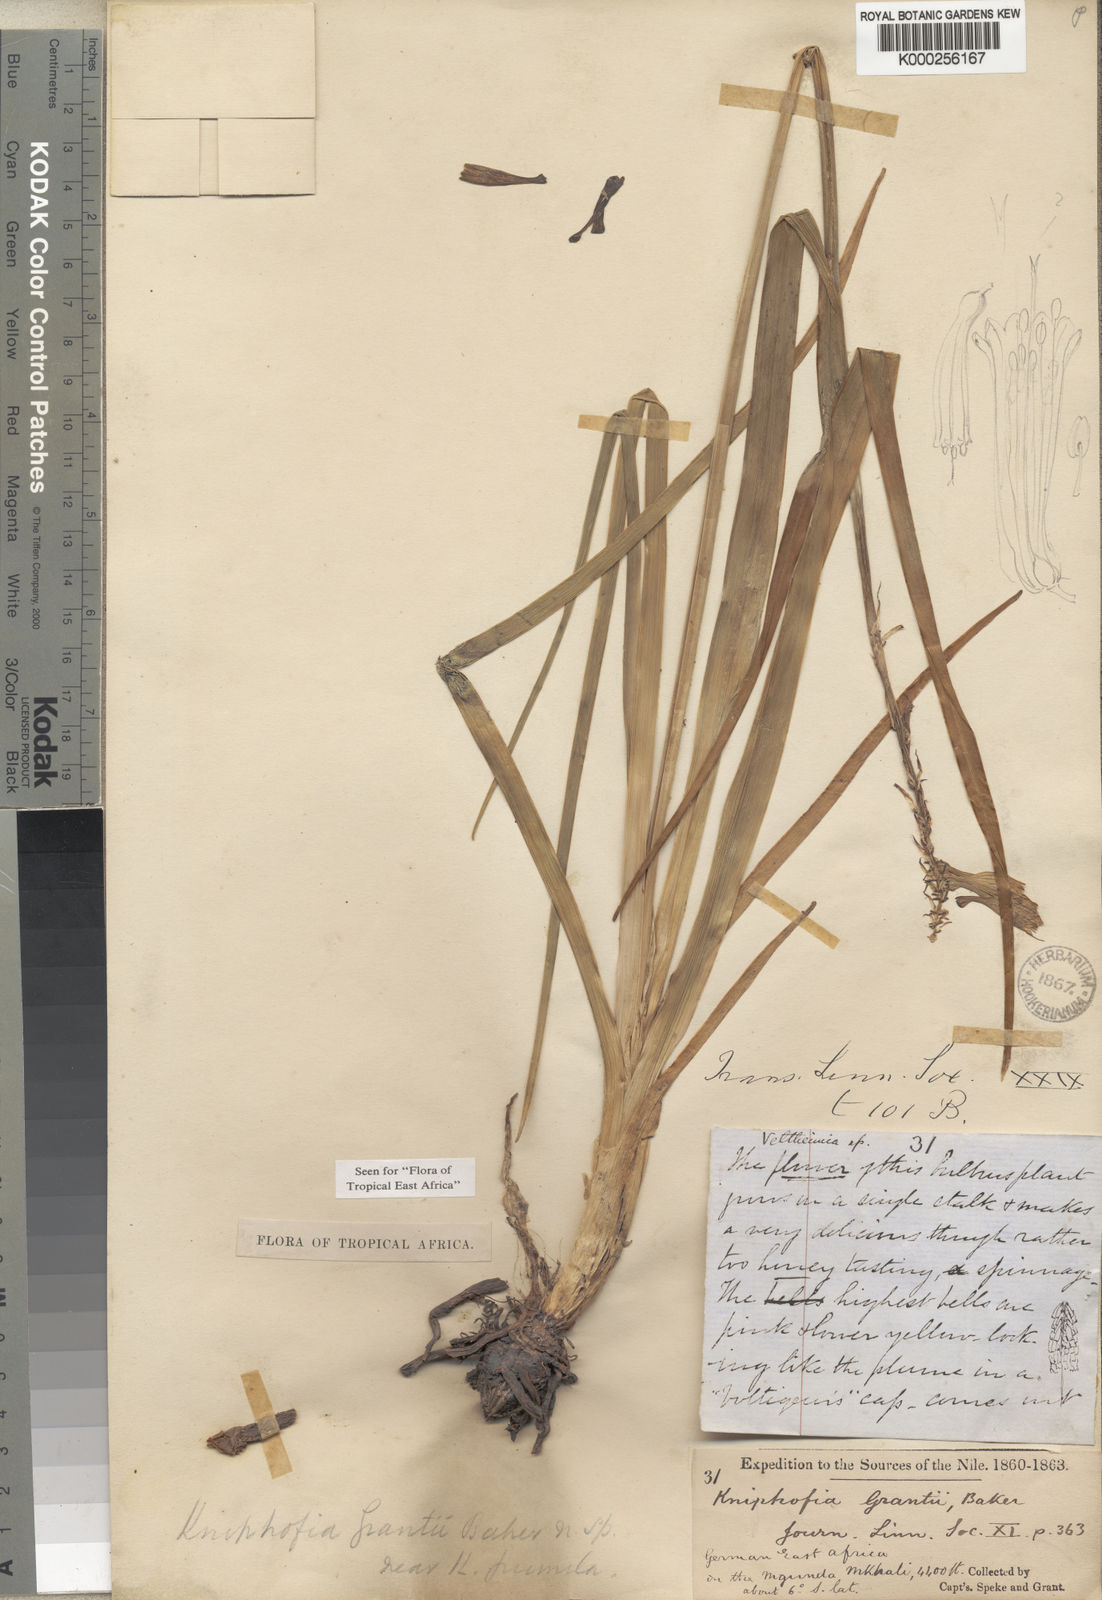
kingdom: Plantae
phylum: Tracheophyta
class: Liliopsida
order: Asparagales
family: Asphodelaceae
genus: Kniphofia
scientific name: Kniphofia grantii
